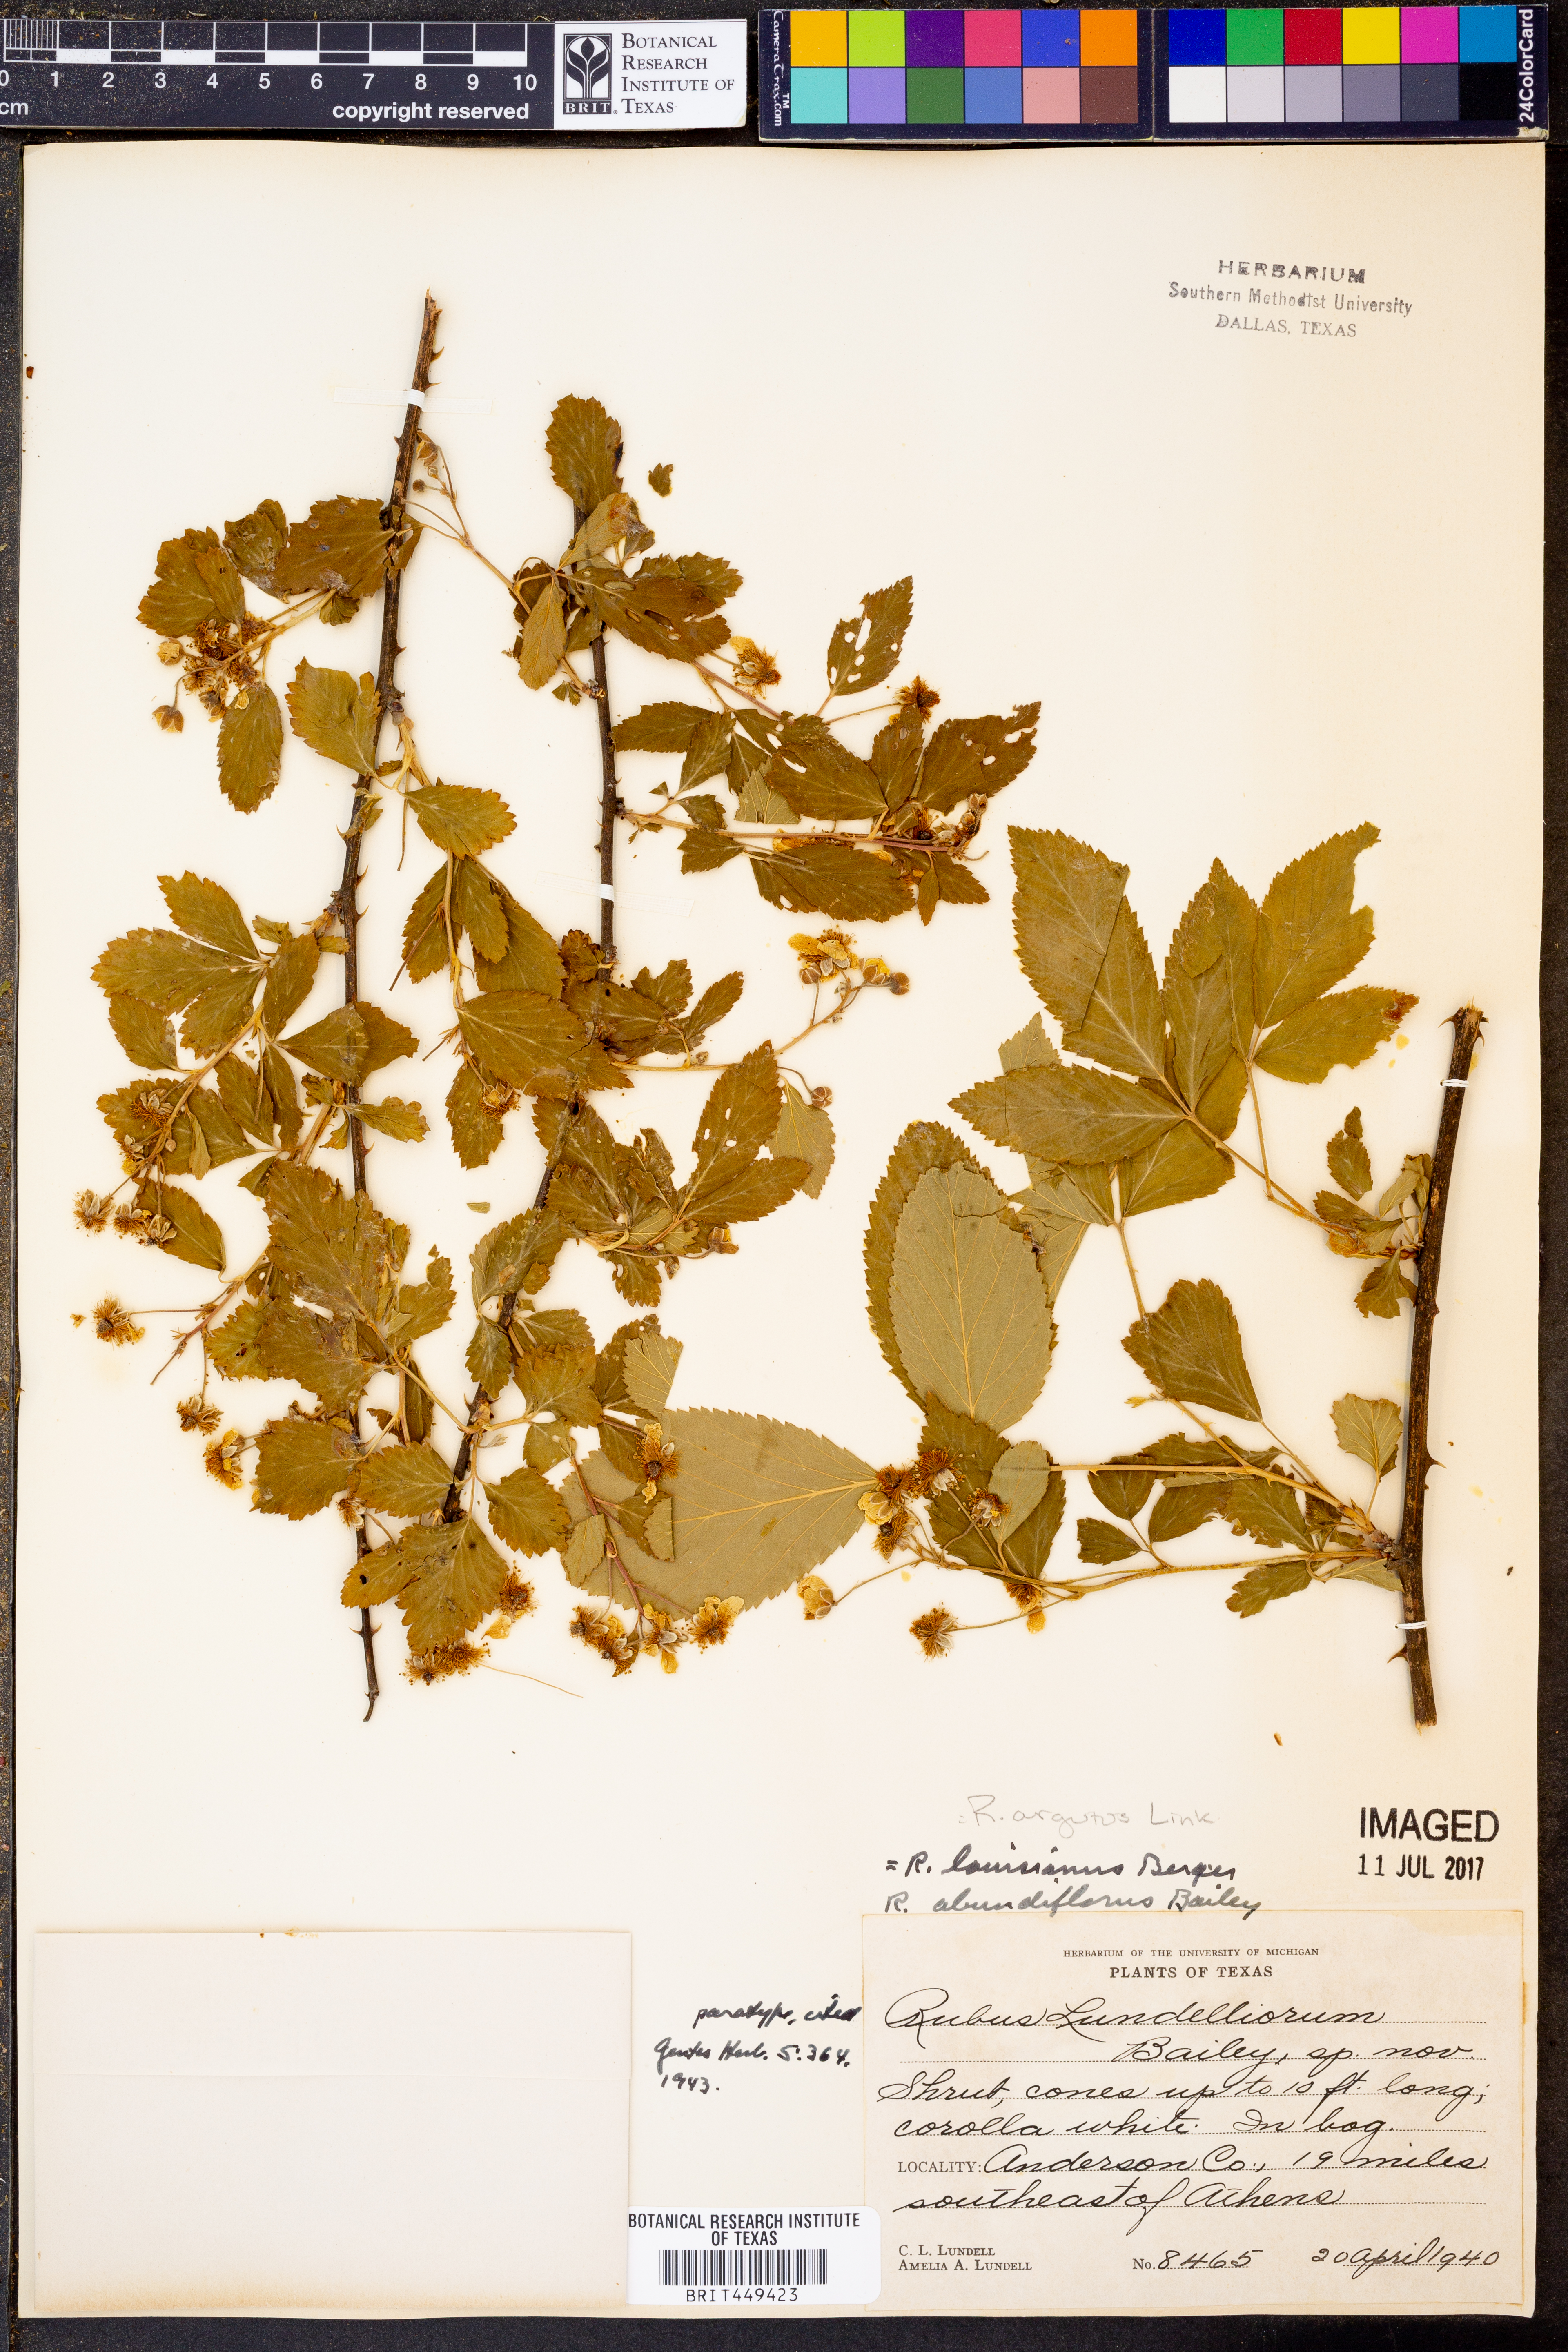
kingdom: Plantae
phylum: Tracheophyta
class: Magnoliopsida
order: Rosales
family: Rosaceae
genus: Rubus
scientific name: Rubus argutus
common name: Sawtooth blackberry
